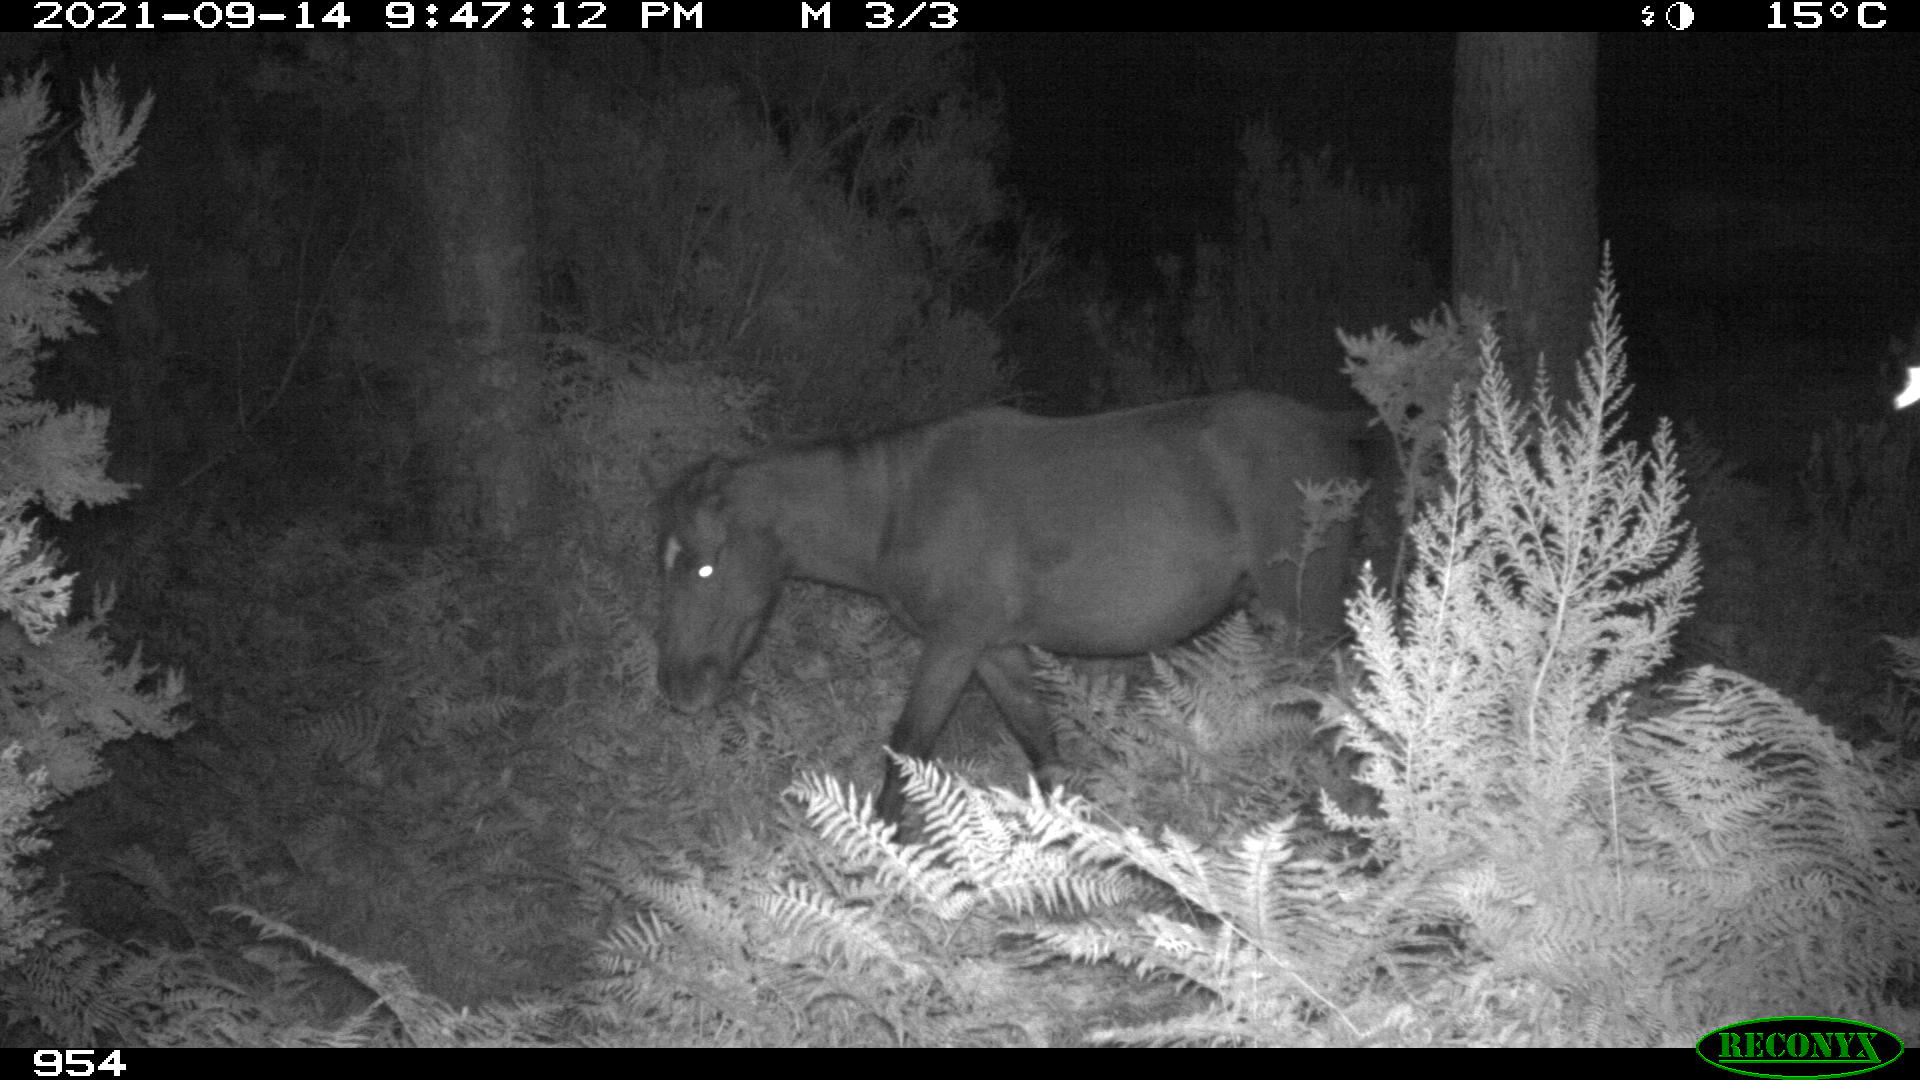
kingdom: Animalia
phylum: Chordata
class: Mammalia
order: Perissodactyla
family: Equidae
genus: Equus
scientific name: Equus caballus
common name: Horse
